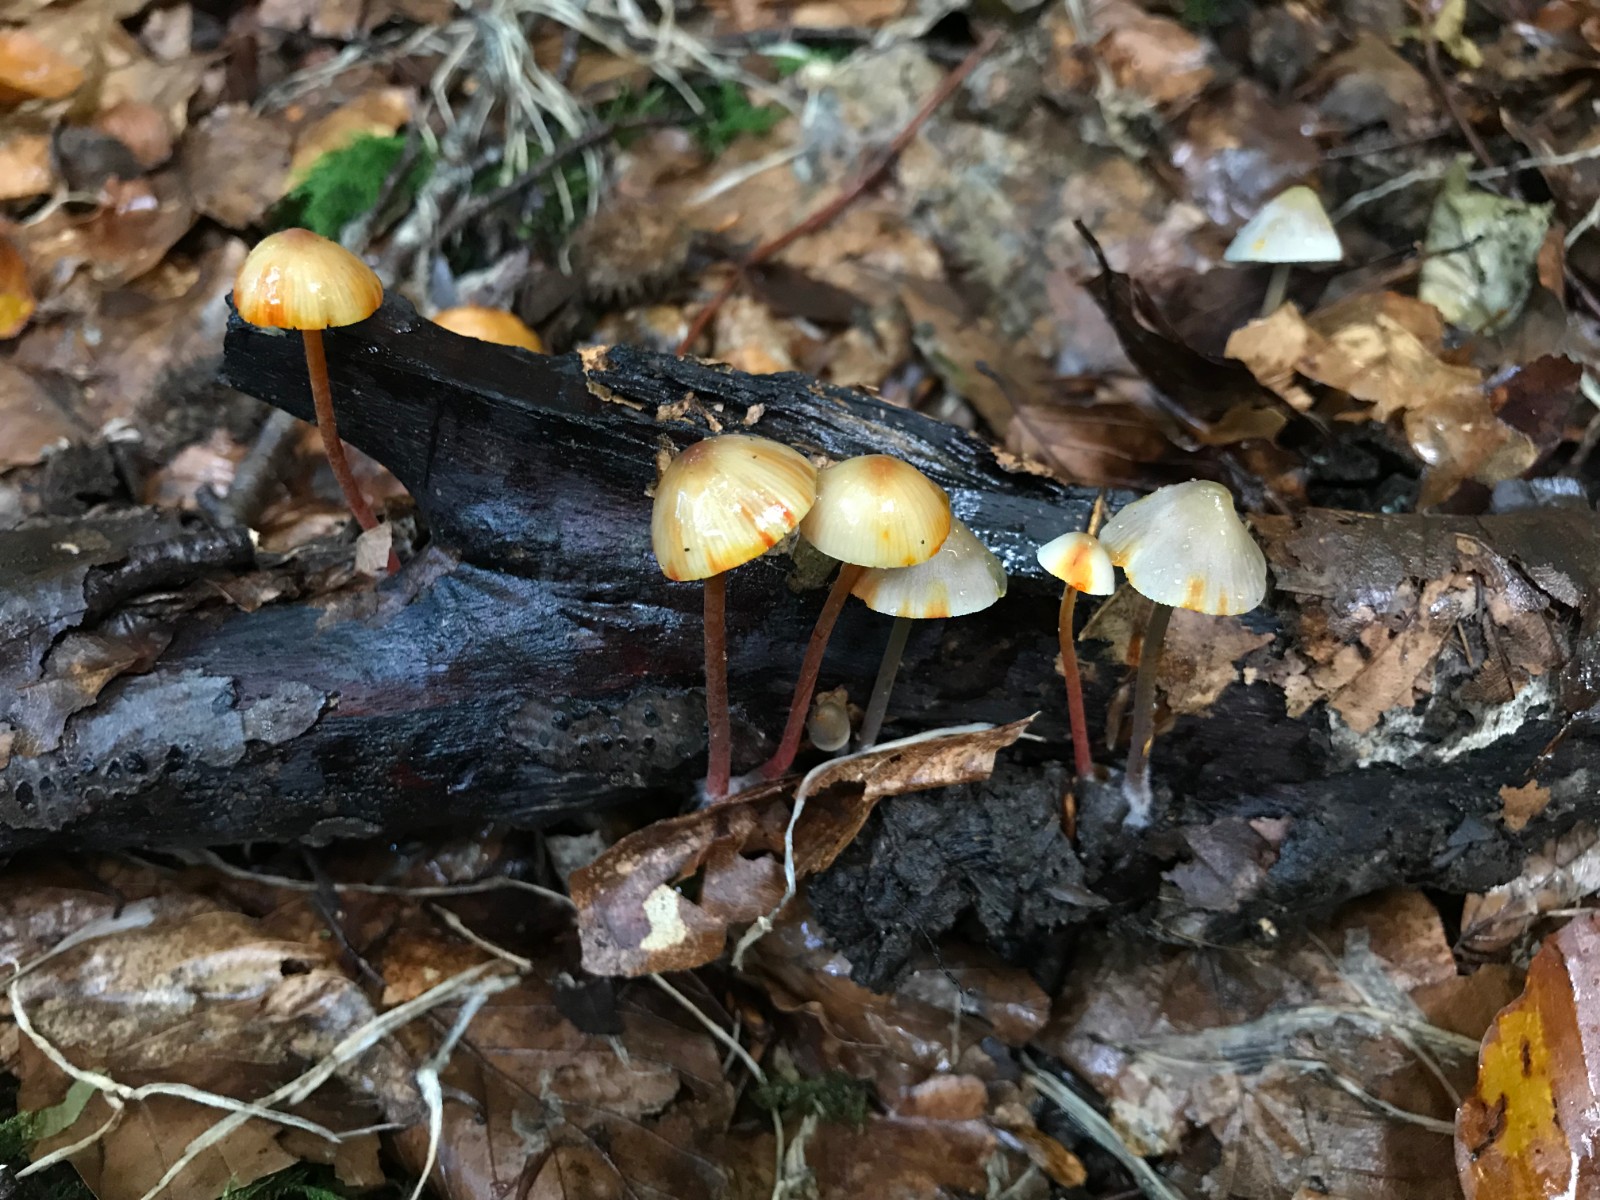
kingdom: Fungi
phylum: Basidiomycota
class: Agaricomycetes
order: Agaricales
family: Mycenaceae
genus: Mycena
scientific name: Mycena crocata
